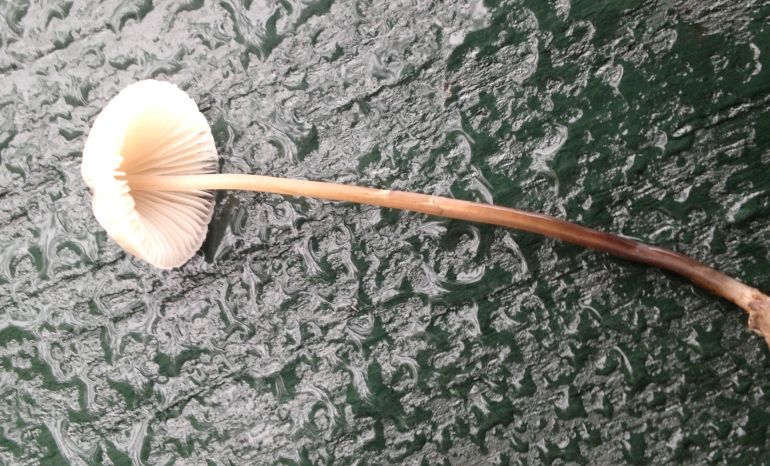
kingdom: Fungi
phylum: Basidiomycota
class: Agaricomycetes
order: Agaricales
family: Mycenaceae
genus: Mycena
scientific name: Mycena vitilis
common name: blankstokket huesvamp
